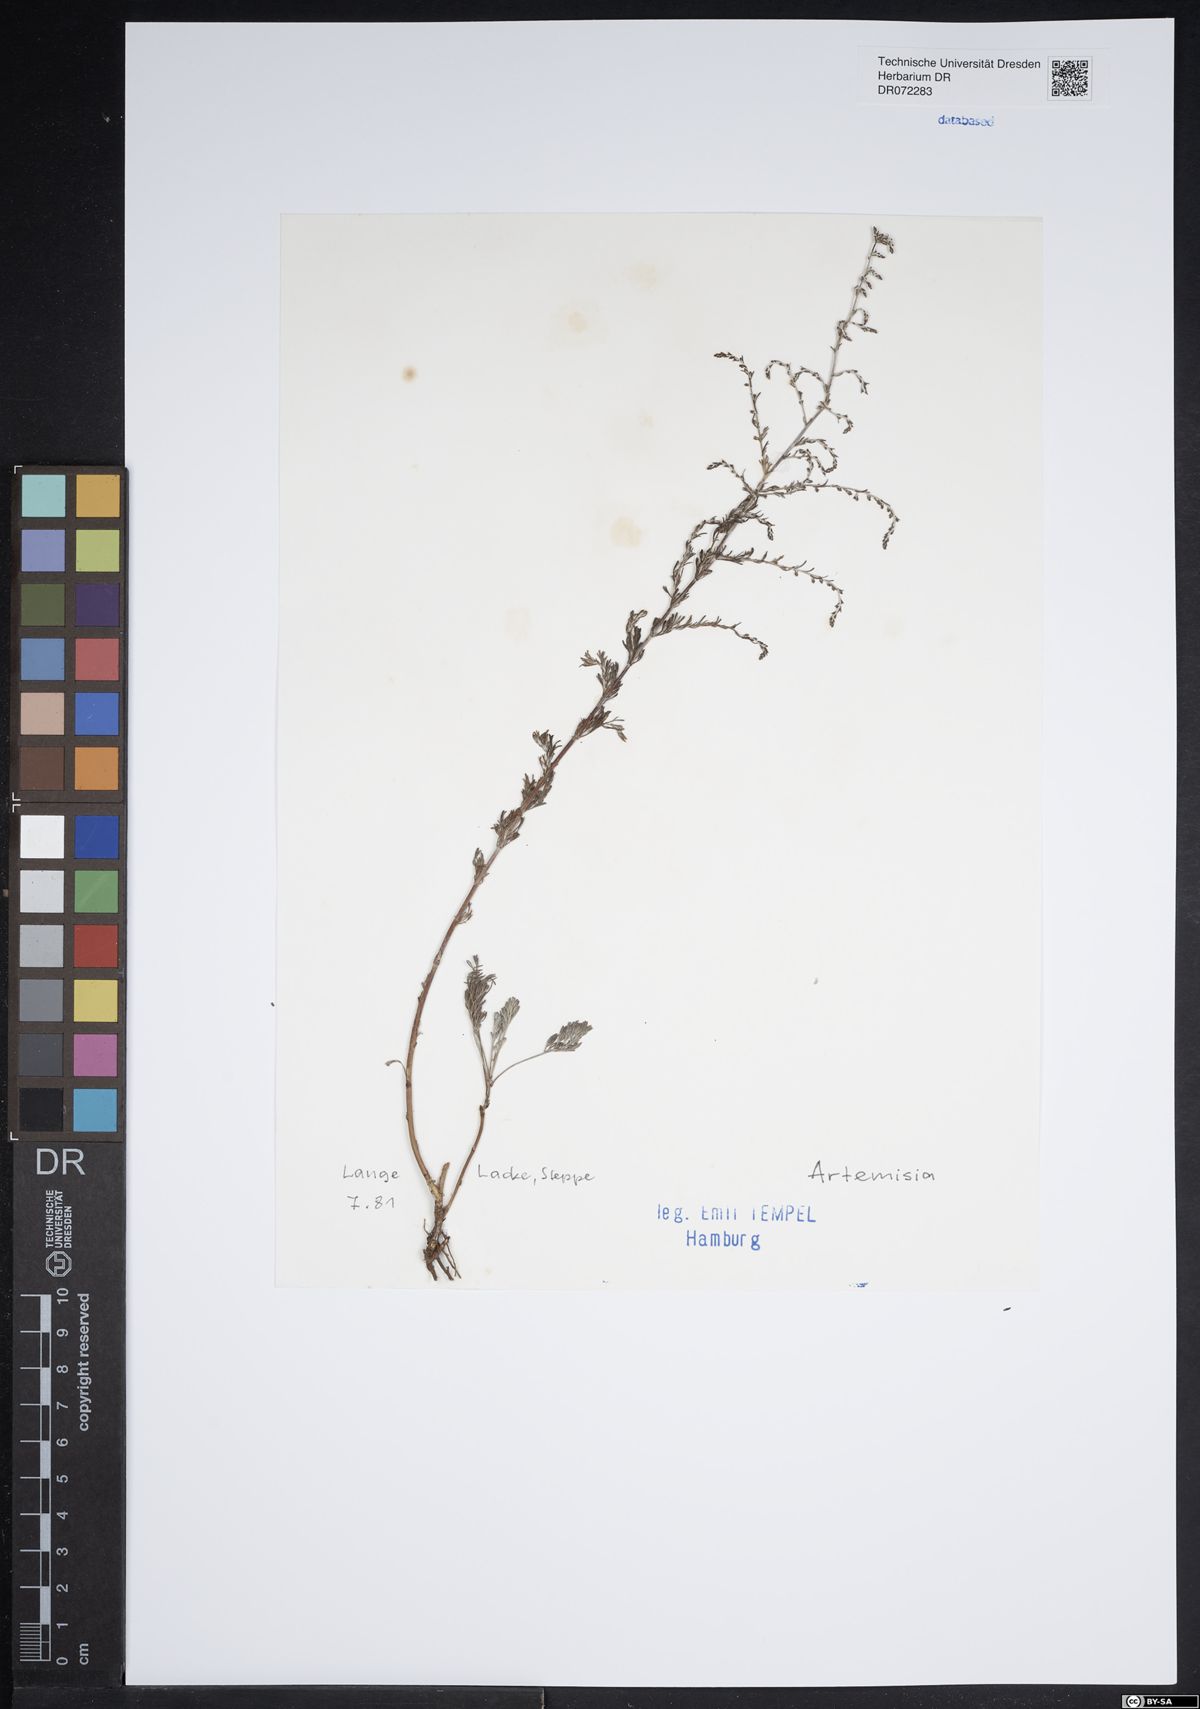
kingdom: Plantae
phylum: Tracheophyta
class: Magnoliopsida
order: Asterales
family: Asteraceae
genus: Artemisia
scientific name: Artemisia
